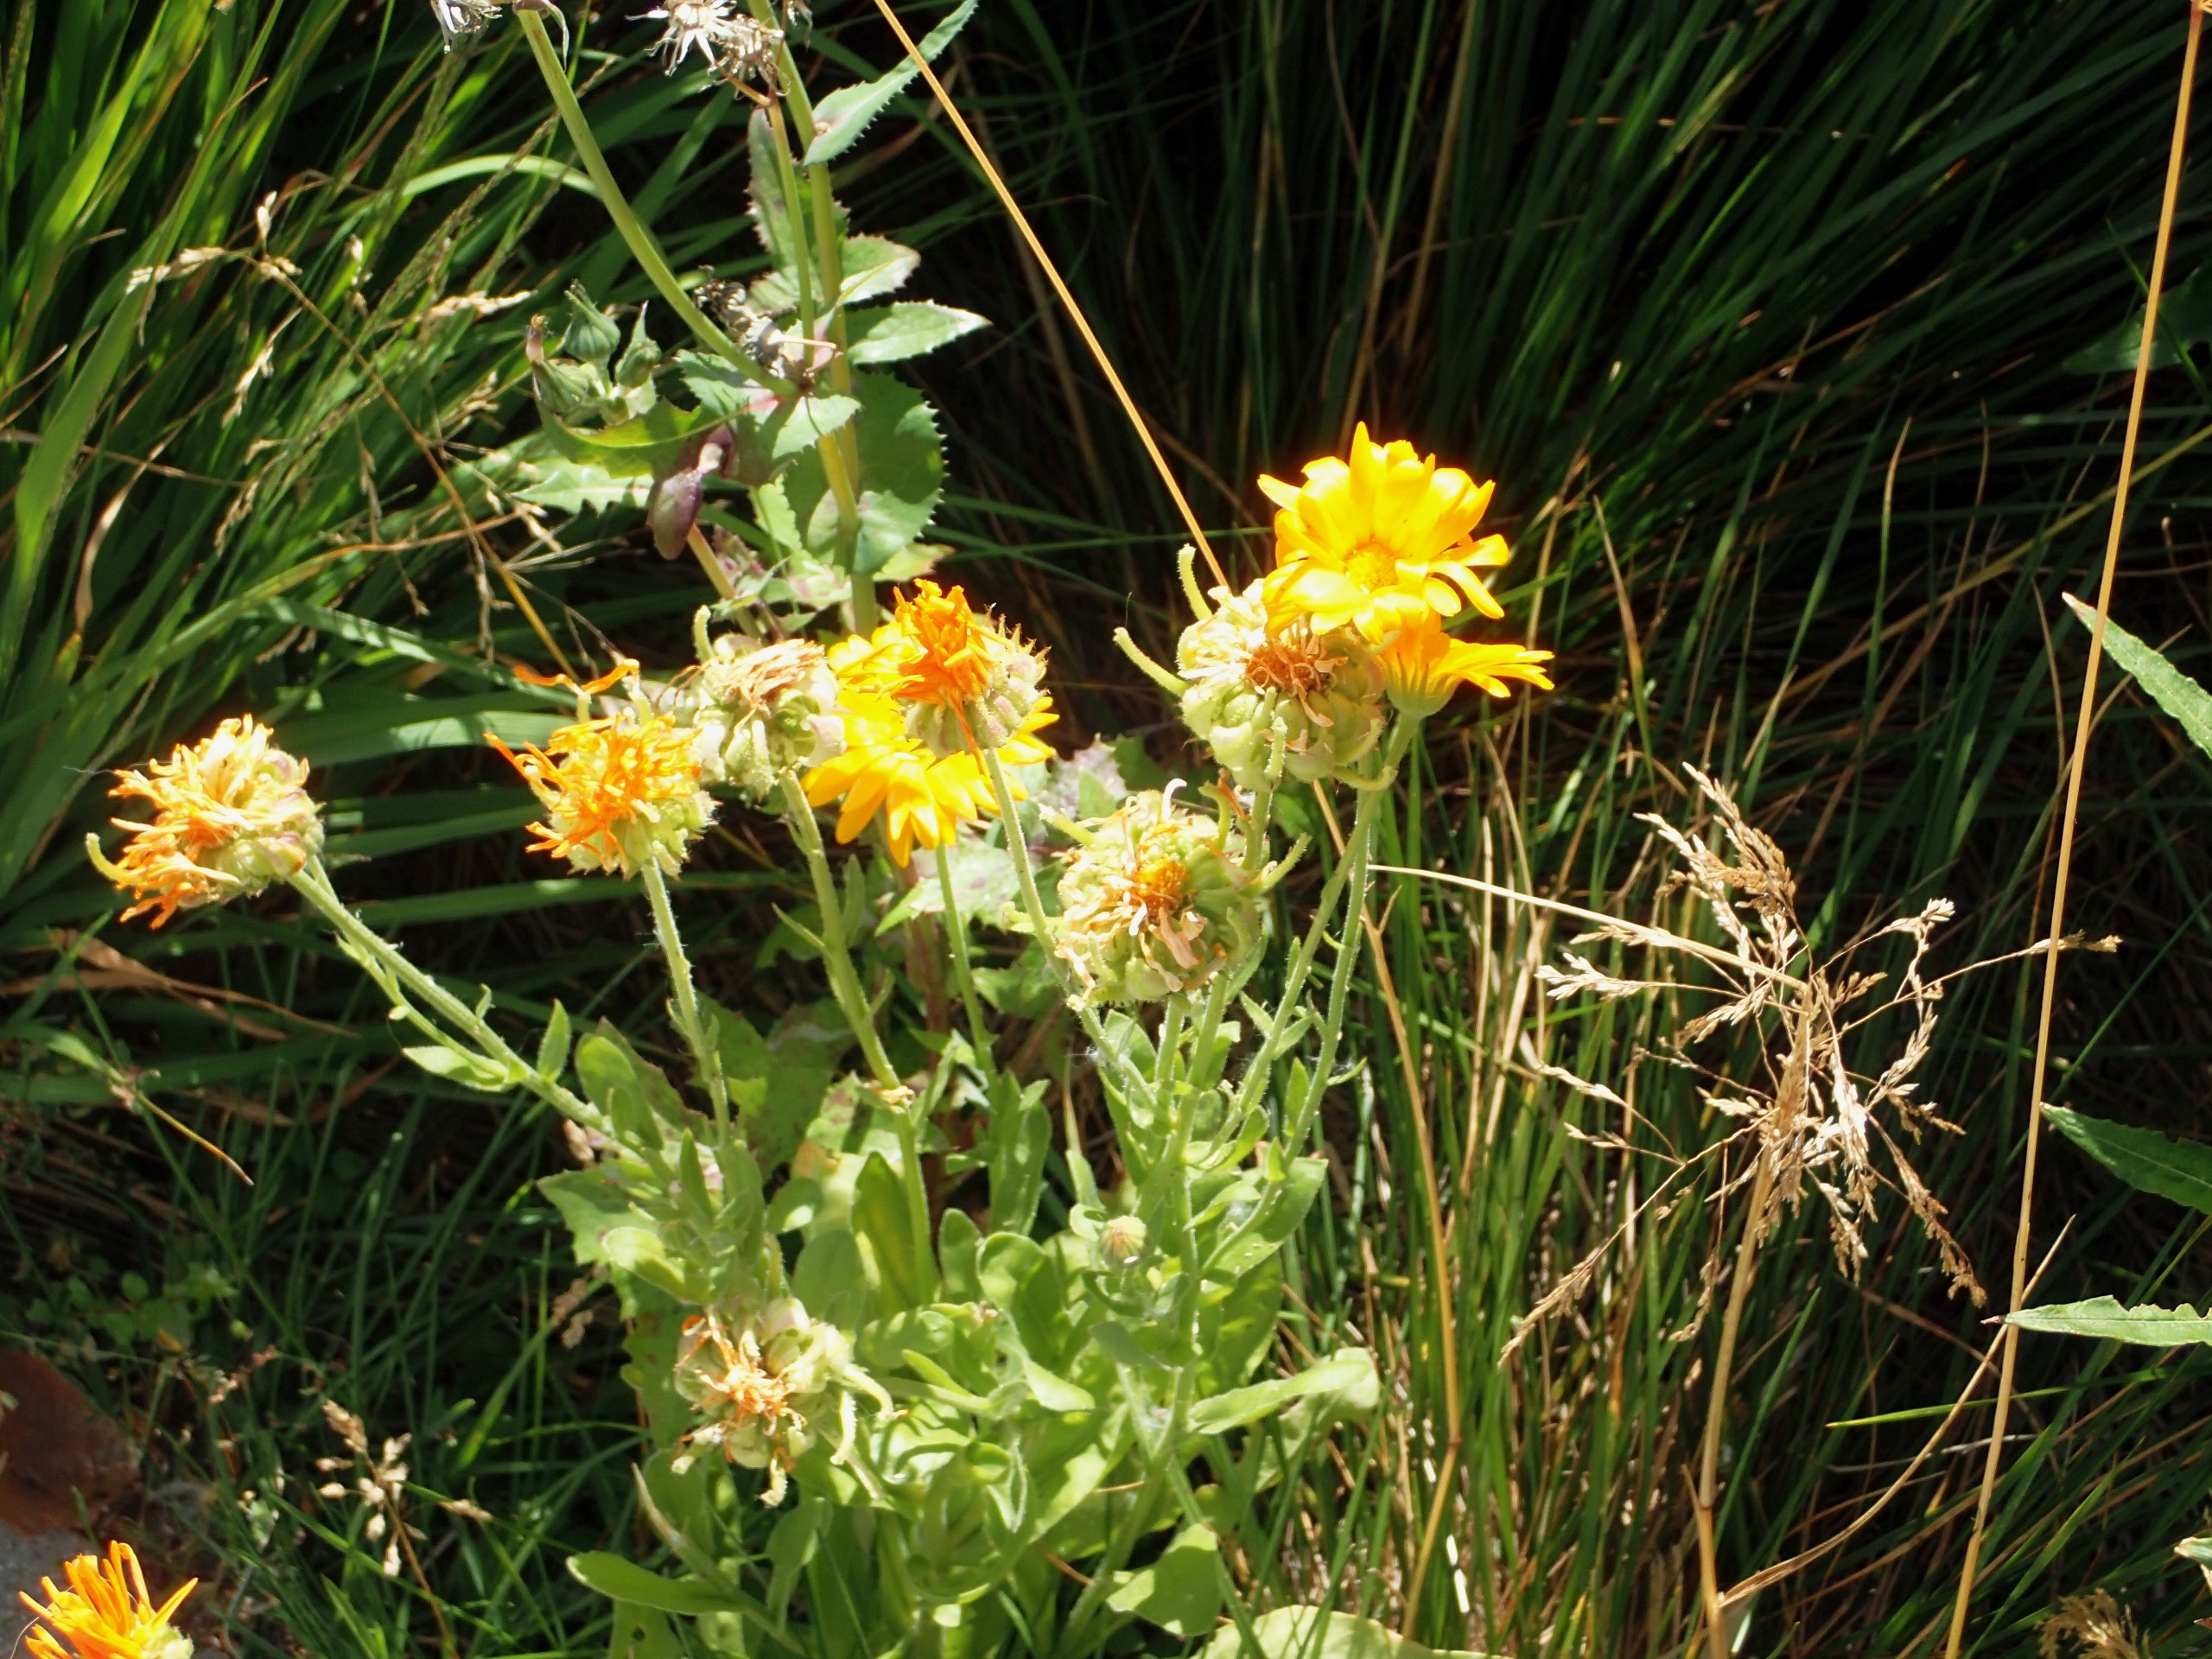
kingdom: Plantae
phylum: Tracheophyta
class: Magnoliopsida
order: Asterales
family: Asteraceae
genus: Calendula
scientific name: Calendula officinalis
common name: Have-morgenfrue
